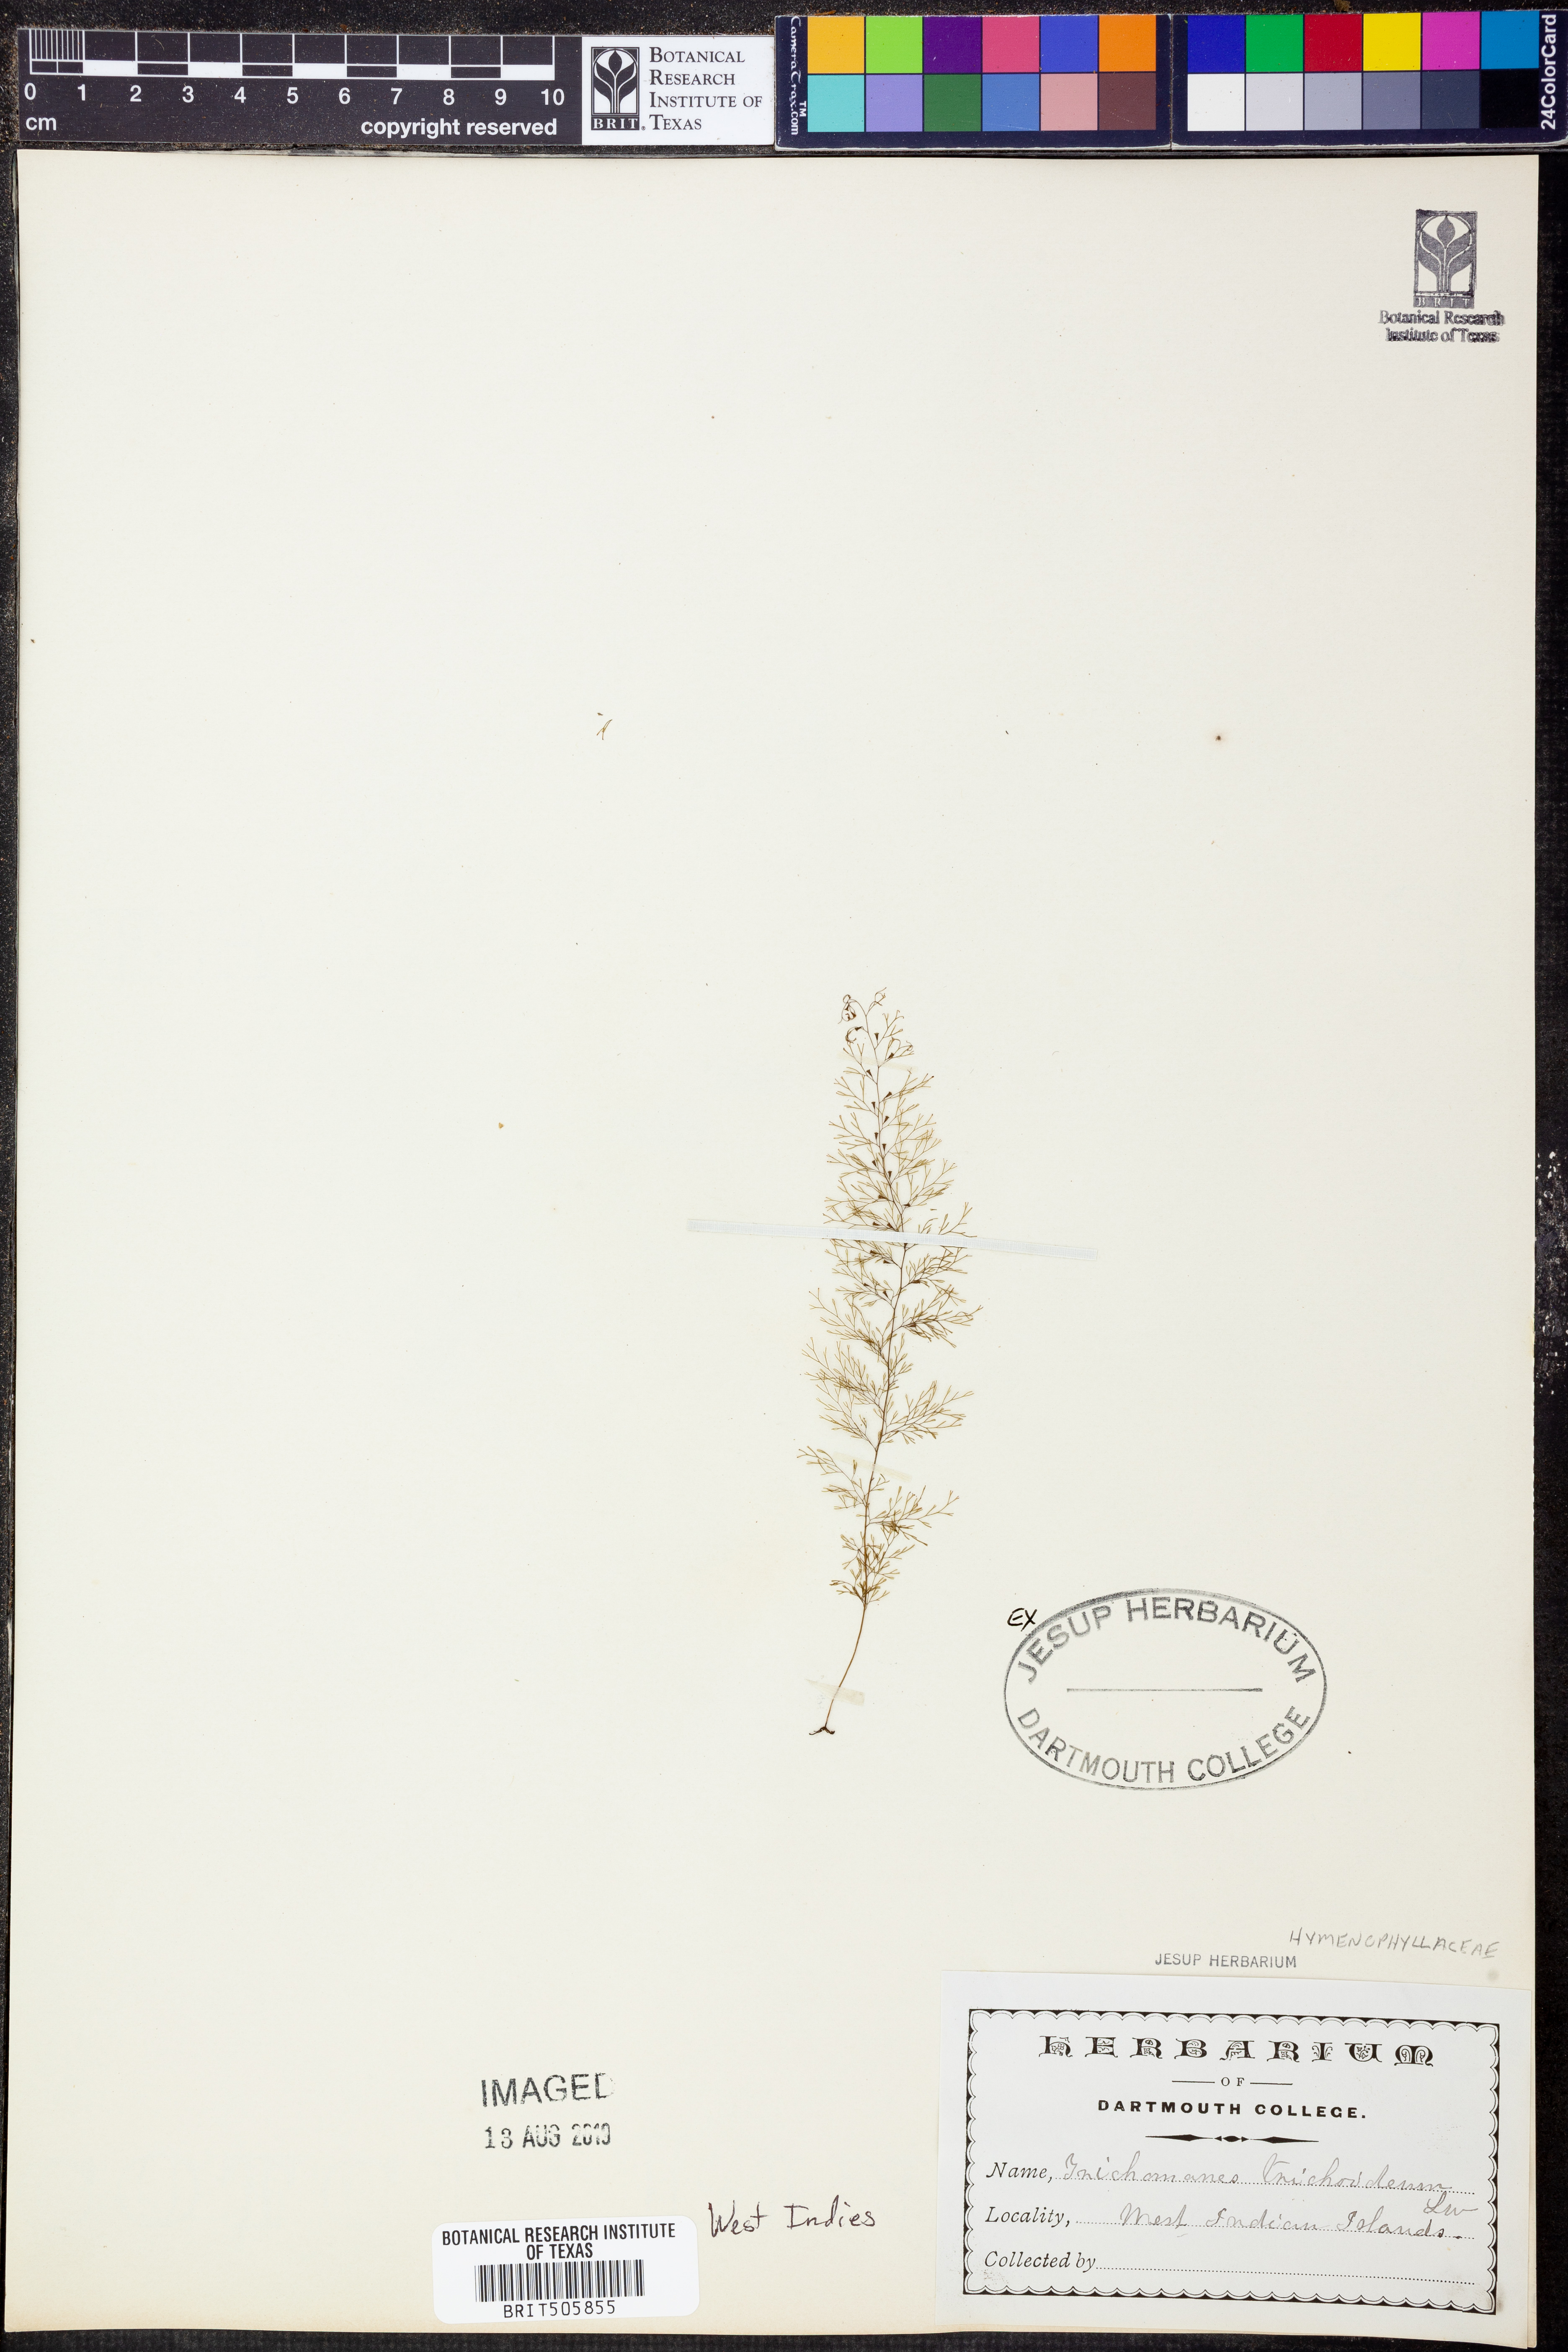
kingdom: Plantae
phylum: Tracheophyta
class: Polypodiopsida
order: Hymenophyllales
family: Hymenophyllaceae
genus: Polyphlebium
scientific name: Polyphlebium capillaceum
